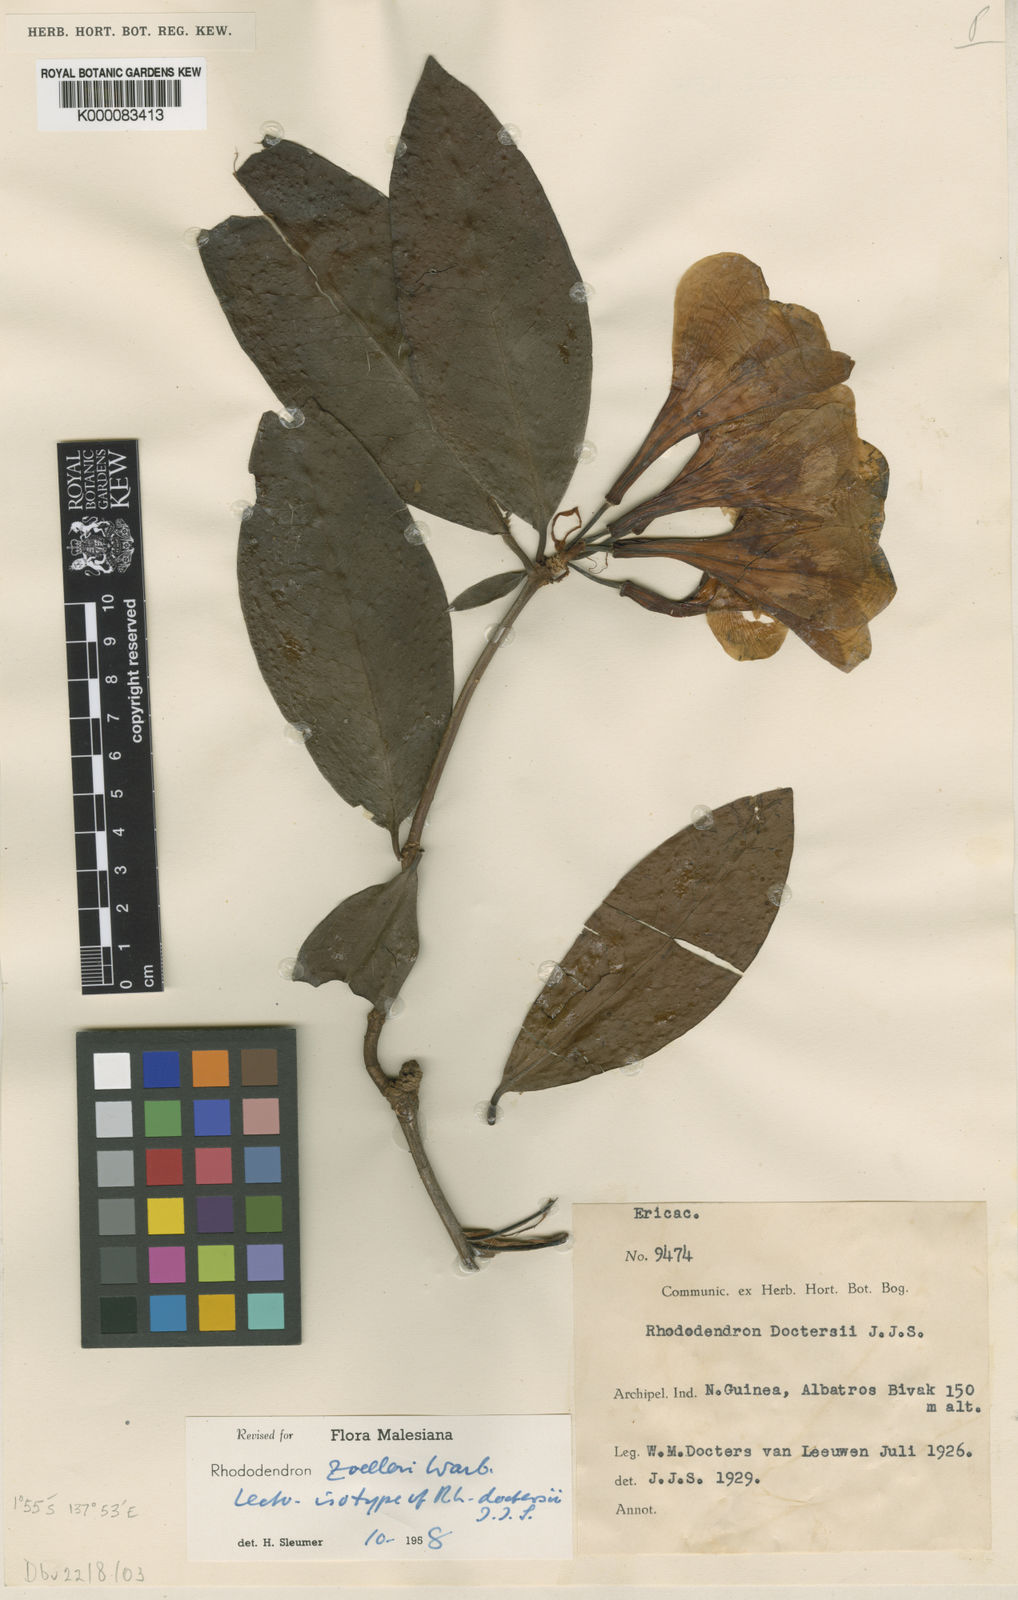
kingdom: Plantae
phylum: Tracheophyta
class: Magnoliopsida
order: Ericales
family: Ericaceae
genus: Rhododendron
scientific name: Rhododendron zoelleri
